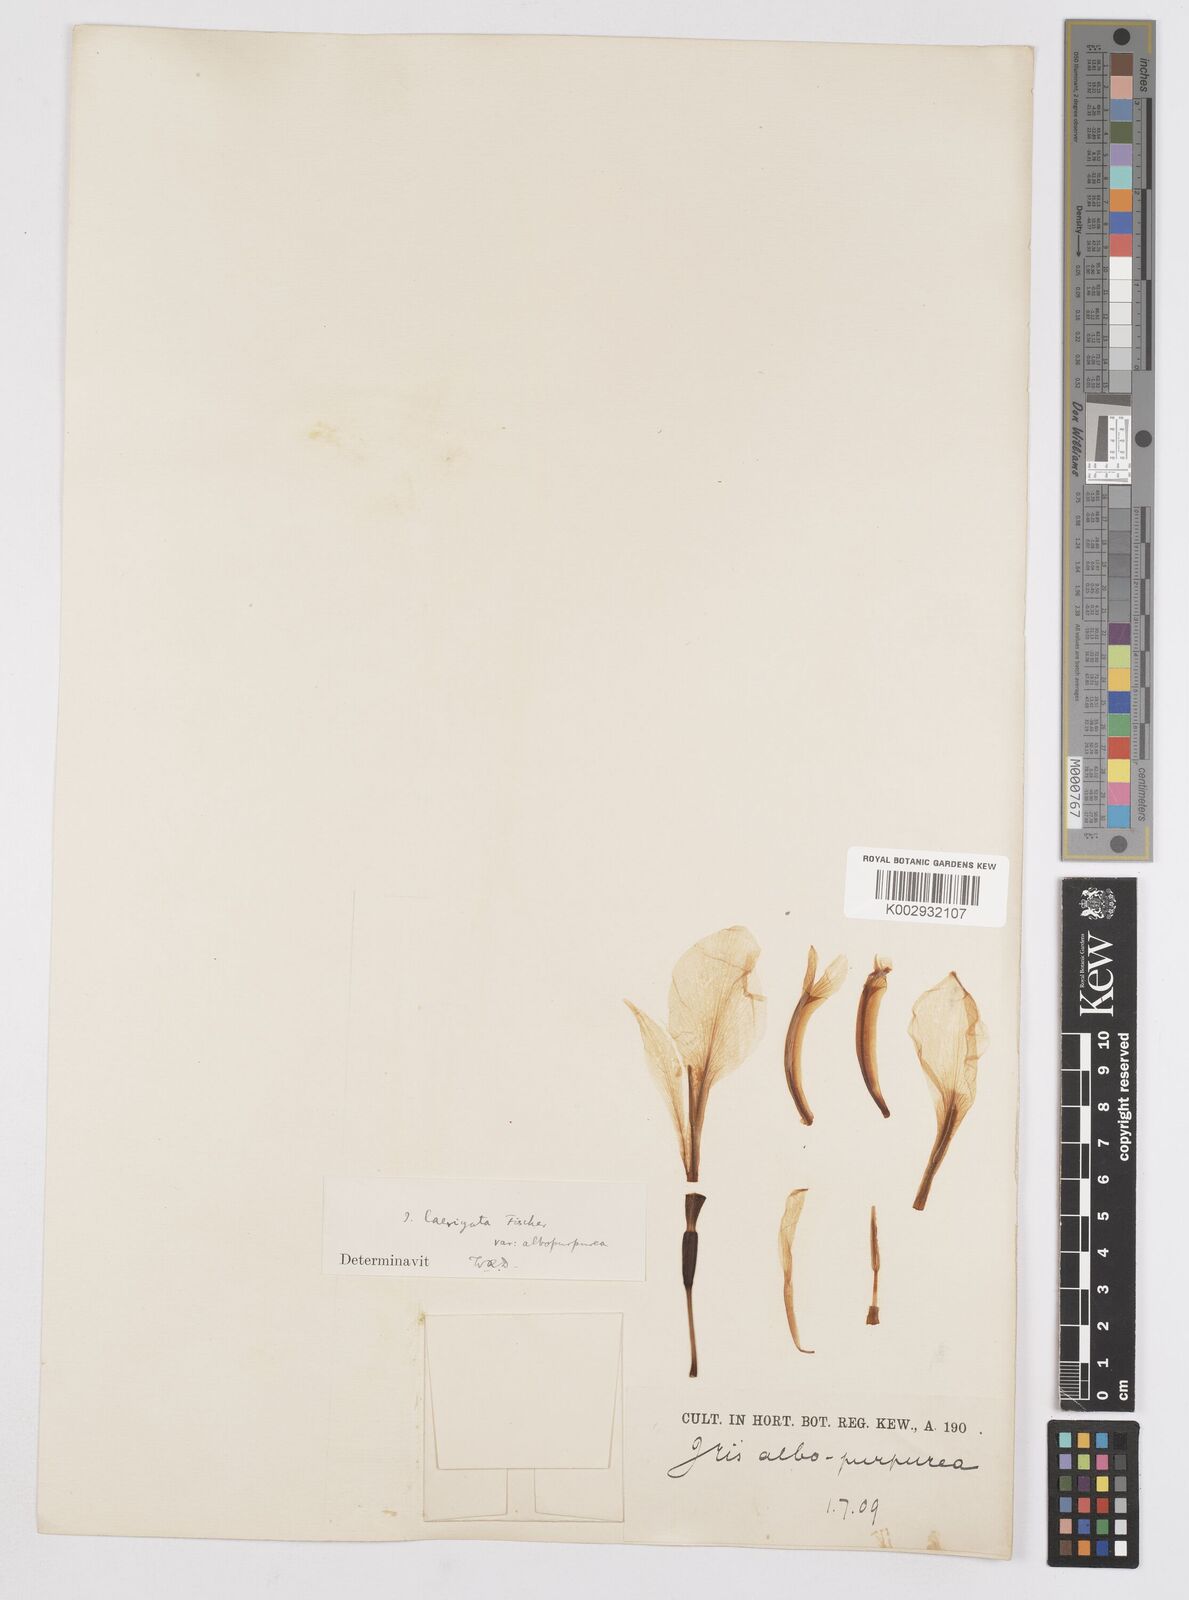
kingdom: Plantae
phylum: Tracheophyta
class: Liliopsida
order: Asparagales
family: Iridaceae
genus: Iris
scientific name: Iris laevigata
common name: Japanese iris
